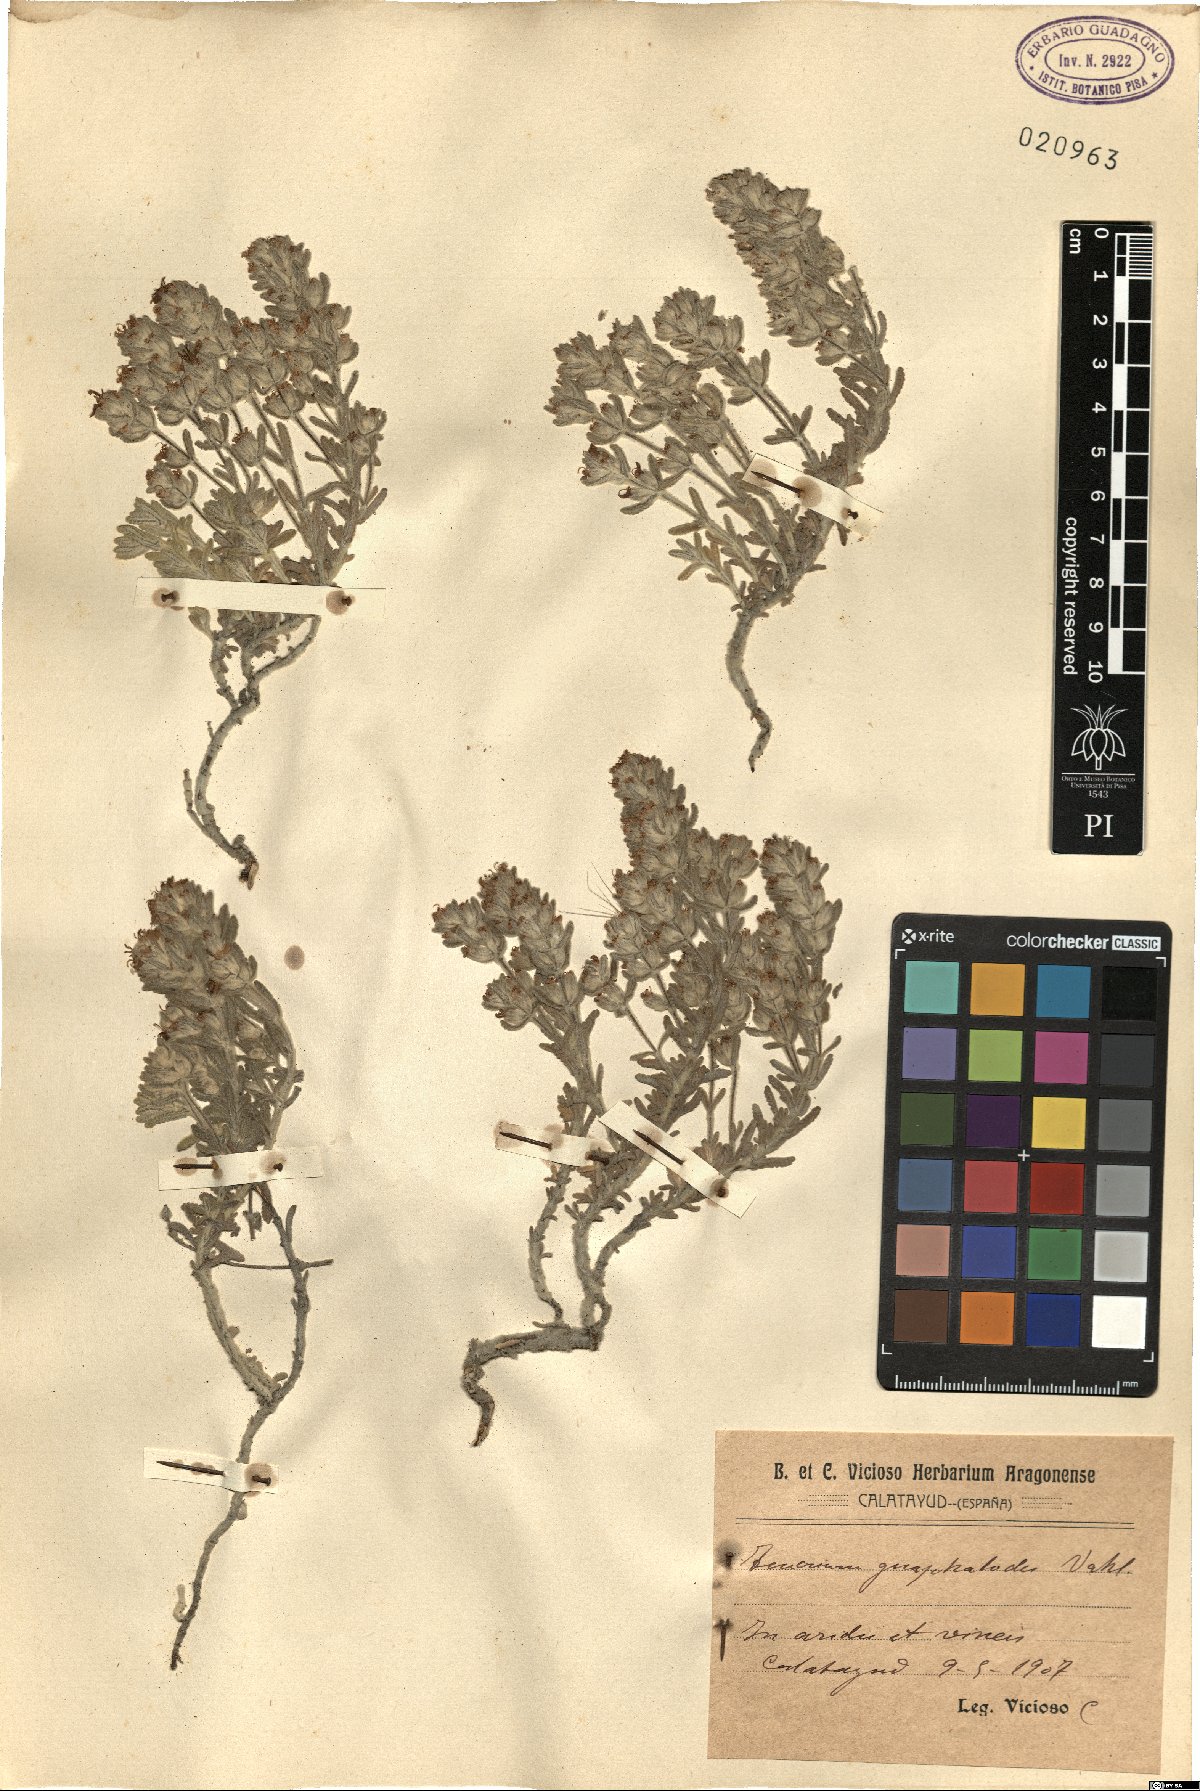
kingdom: Plantae
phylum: Tracheophyta
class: Magnoliopsida
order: Lamiales
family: Lamiaceae
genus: Teucrium
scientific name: Teucrium gnaphalodes
